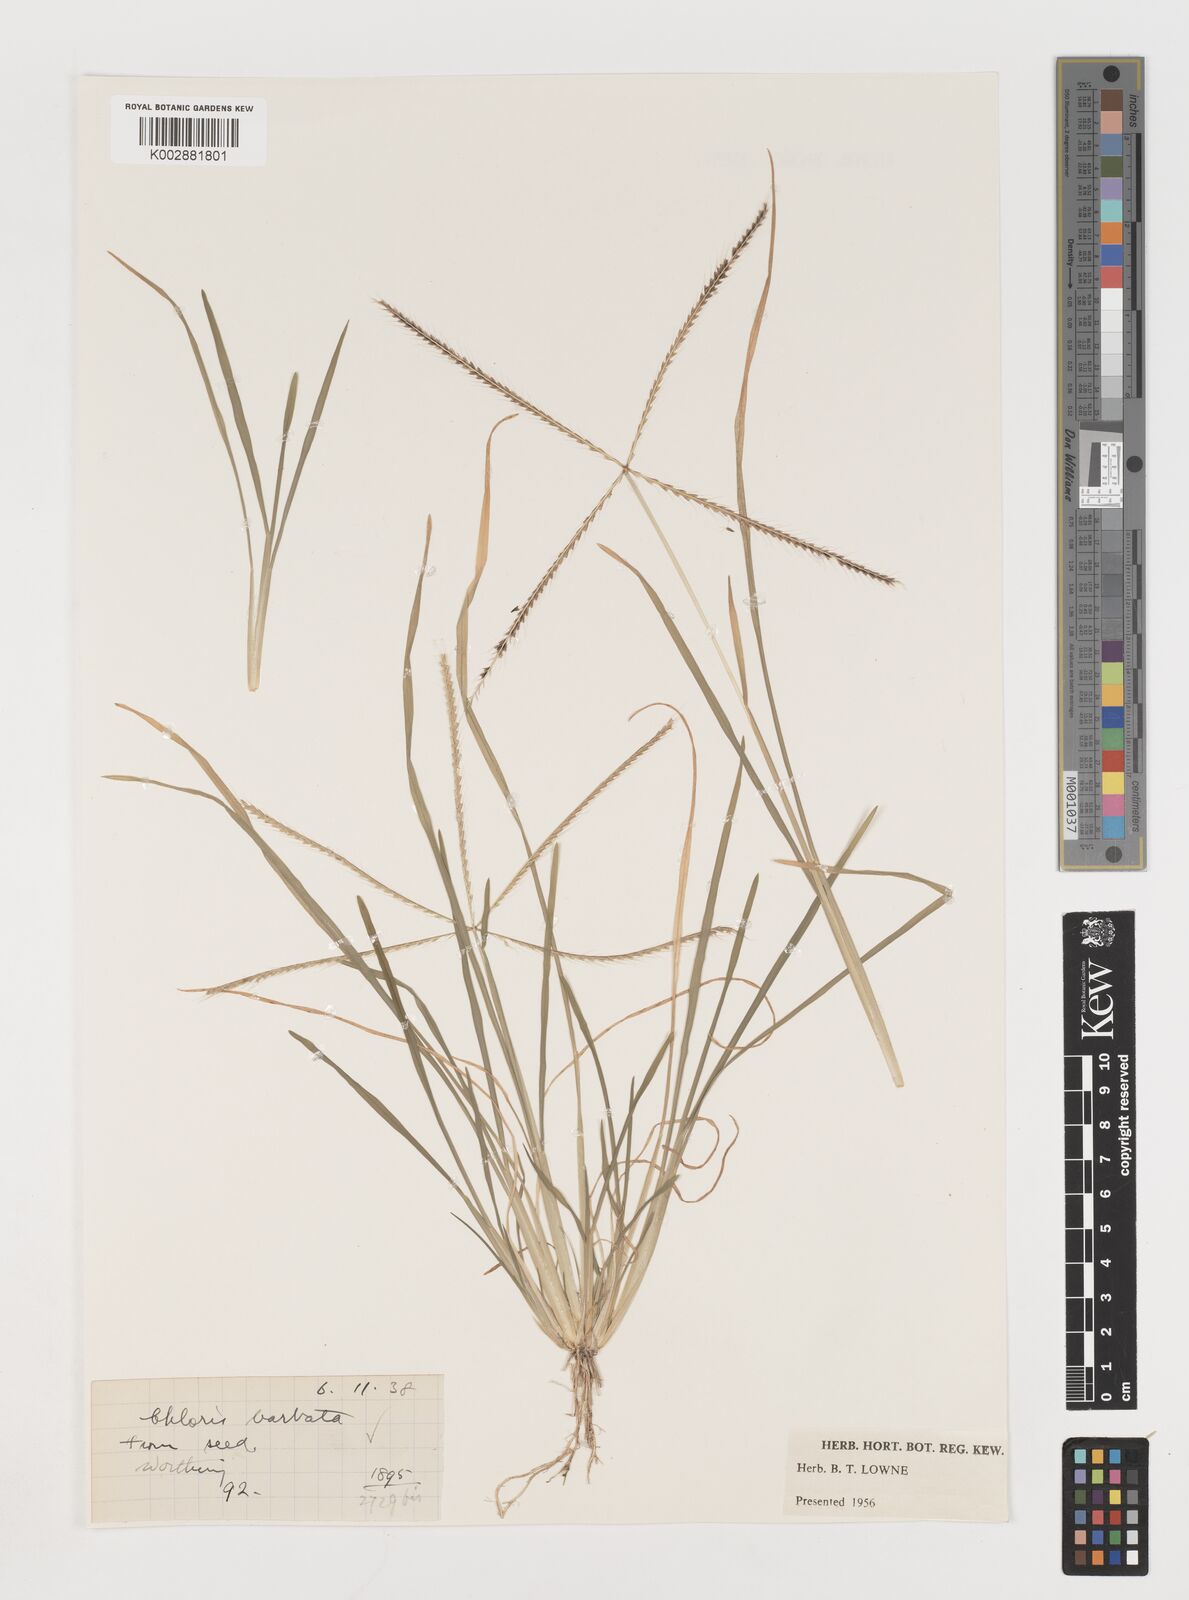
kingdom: Plantae
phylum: Tracheophyta
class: Liliopsida
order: Poales
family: Poaceae
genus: Chloris
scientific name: Chloris
